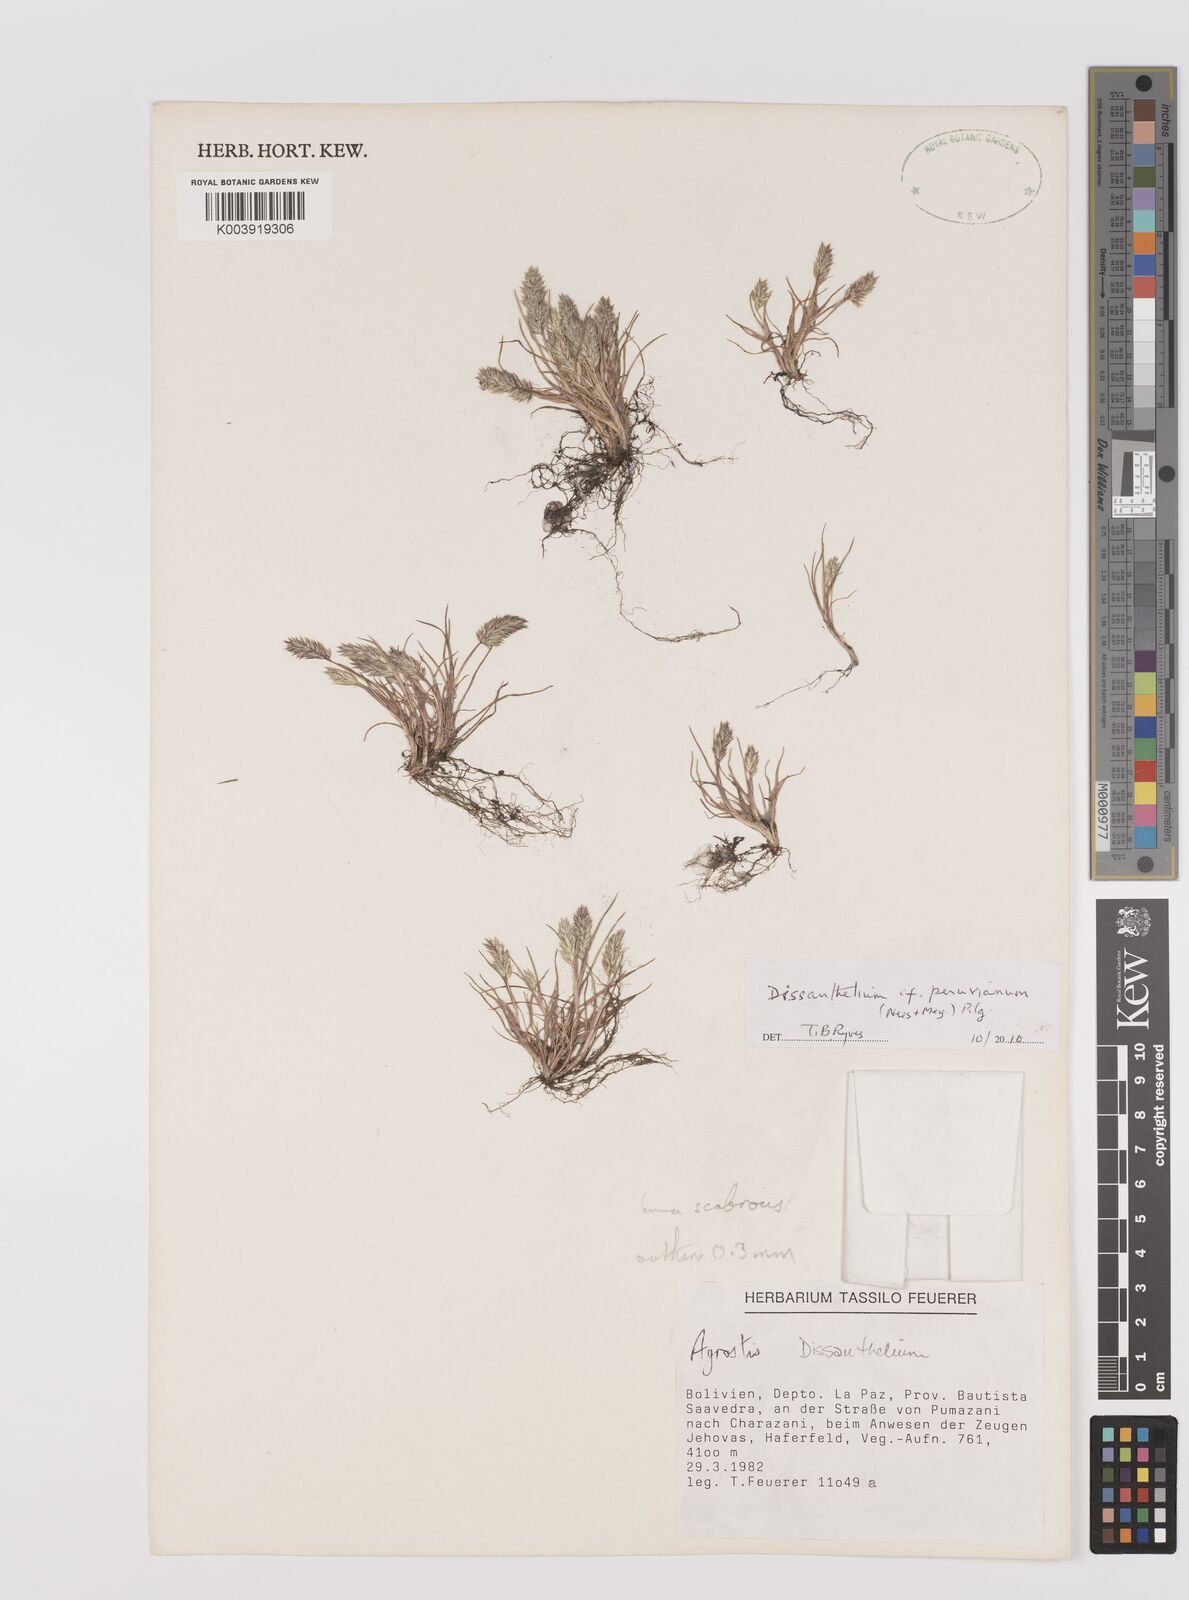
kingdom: Plantae
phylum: Tracheophyta
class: Liliopsida
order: Poales
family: Poaceae
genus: Poa
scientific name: Poa serpana
